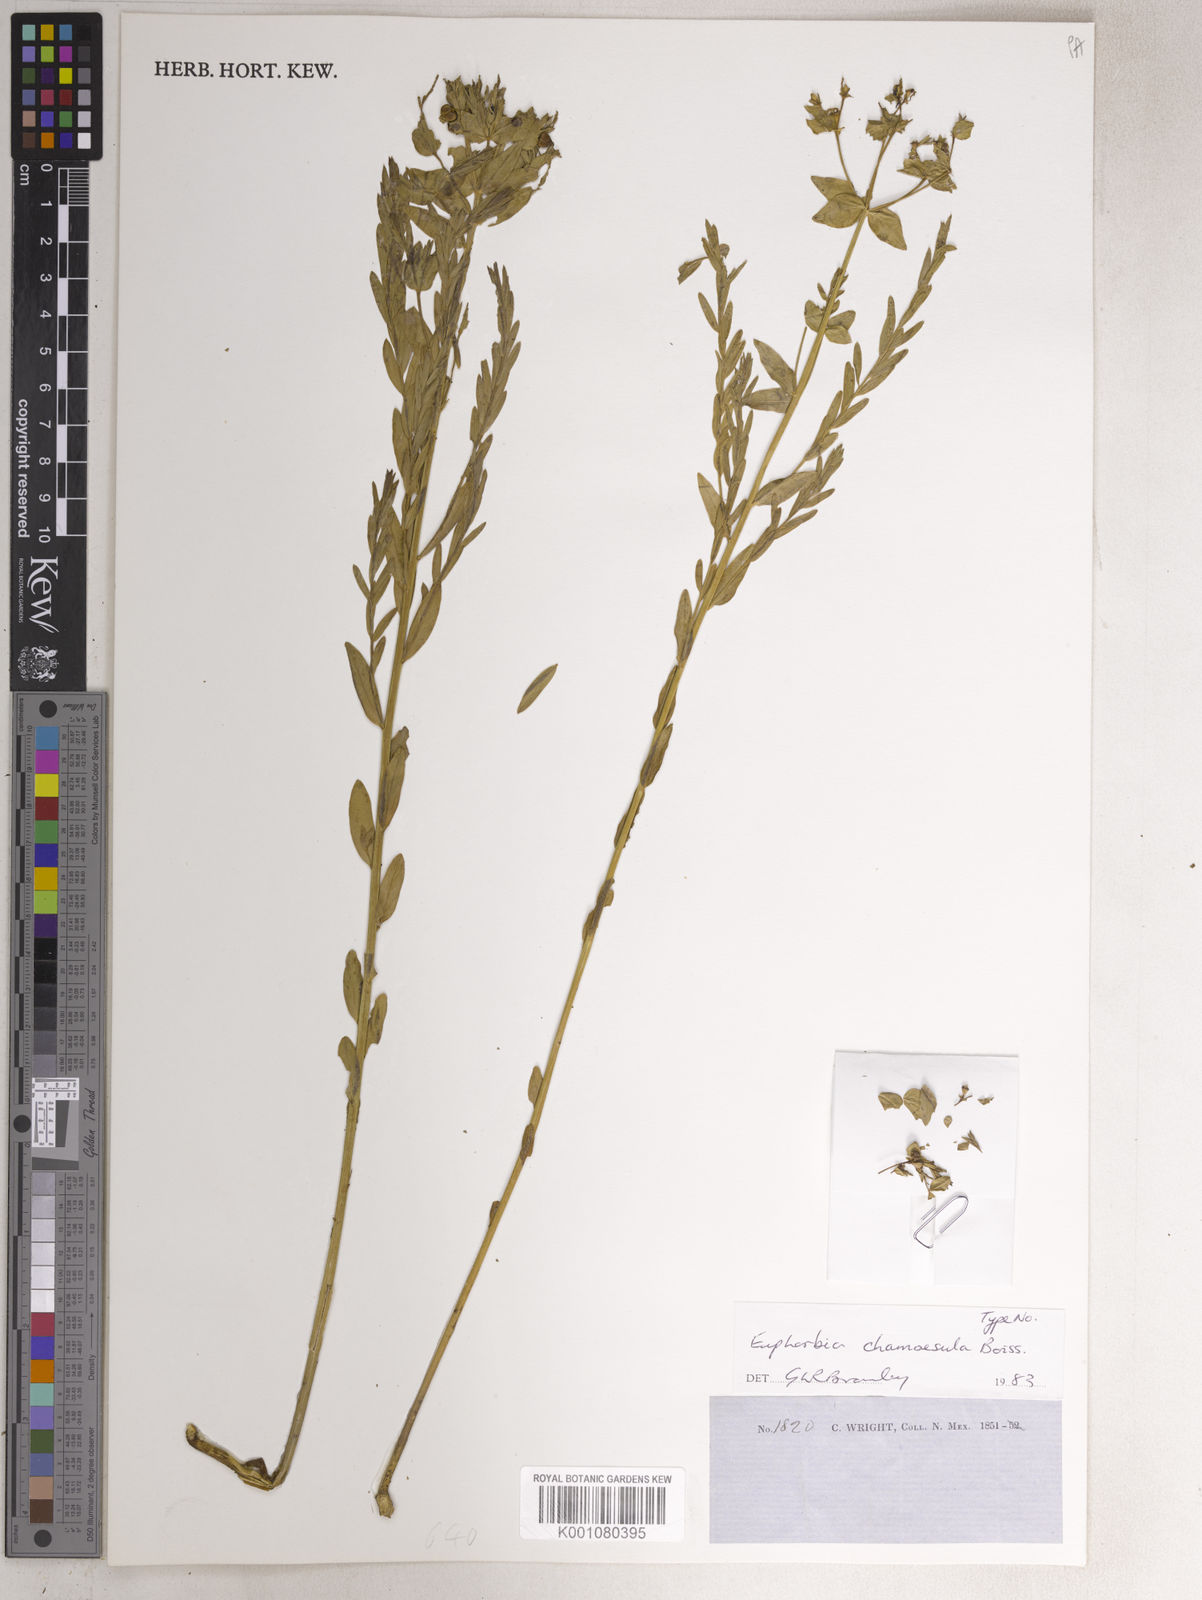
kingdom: Plantae
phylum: Tracheophyta
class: Magnoliopsida
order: Malpighiales
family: Euphorbiaceae
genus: Euphorbia
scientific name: Euphorbia chamaesula
